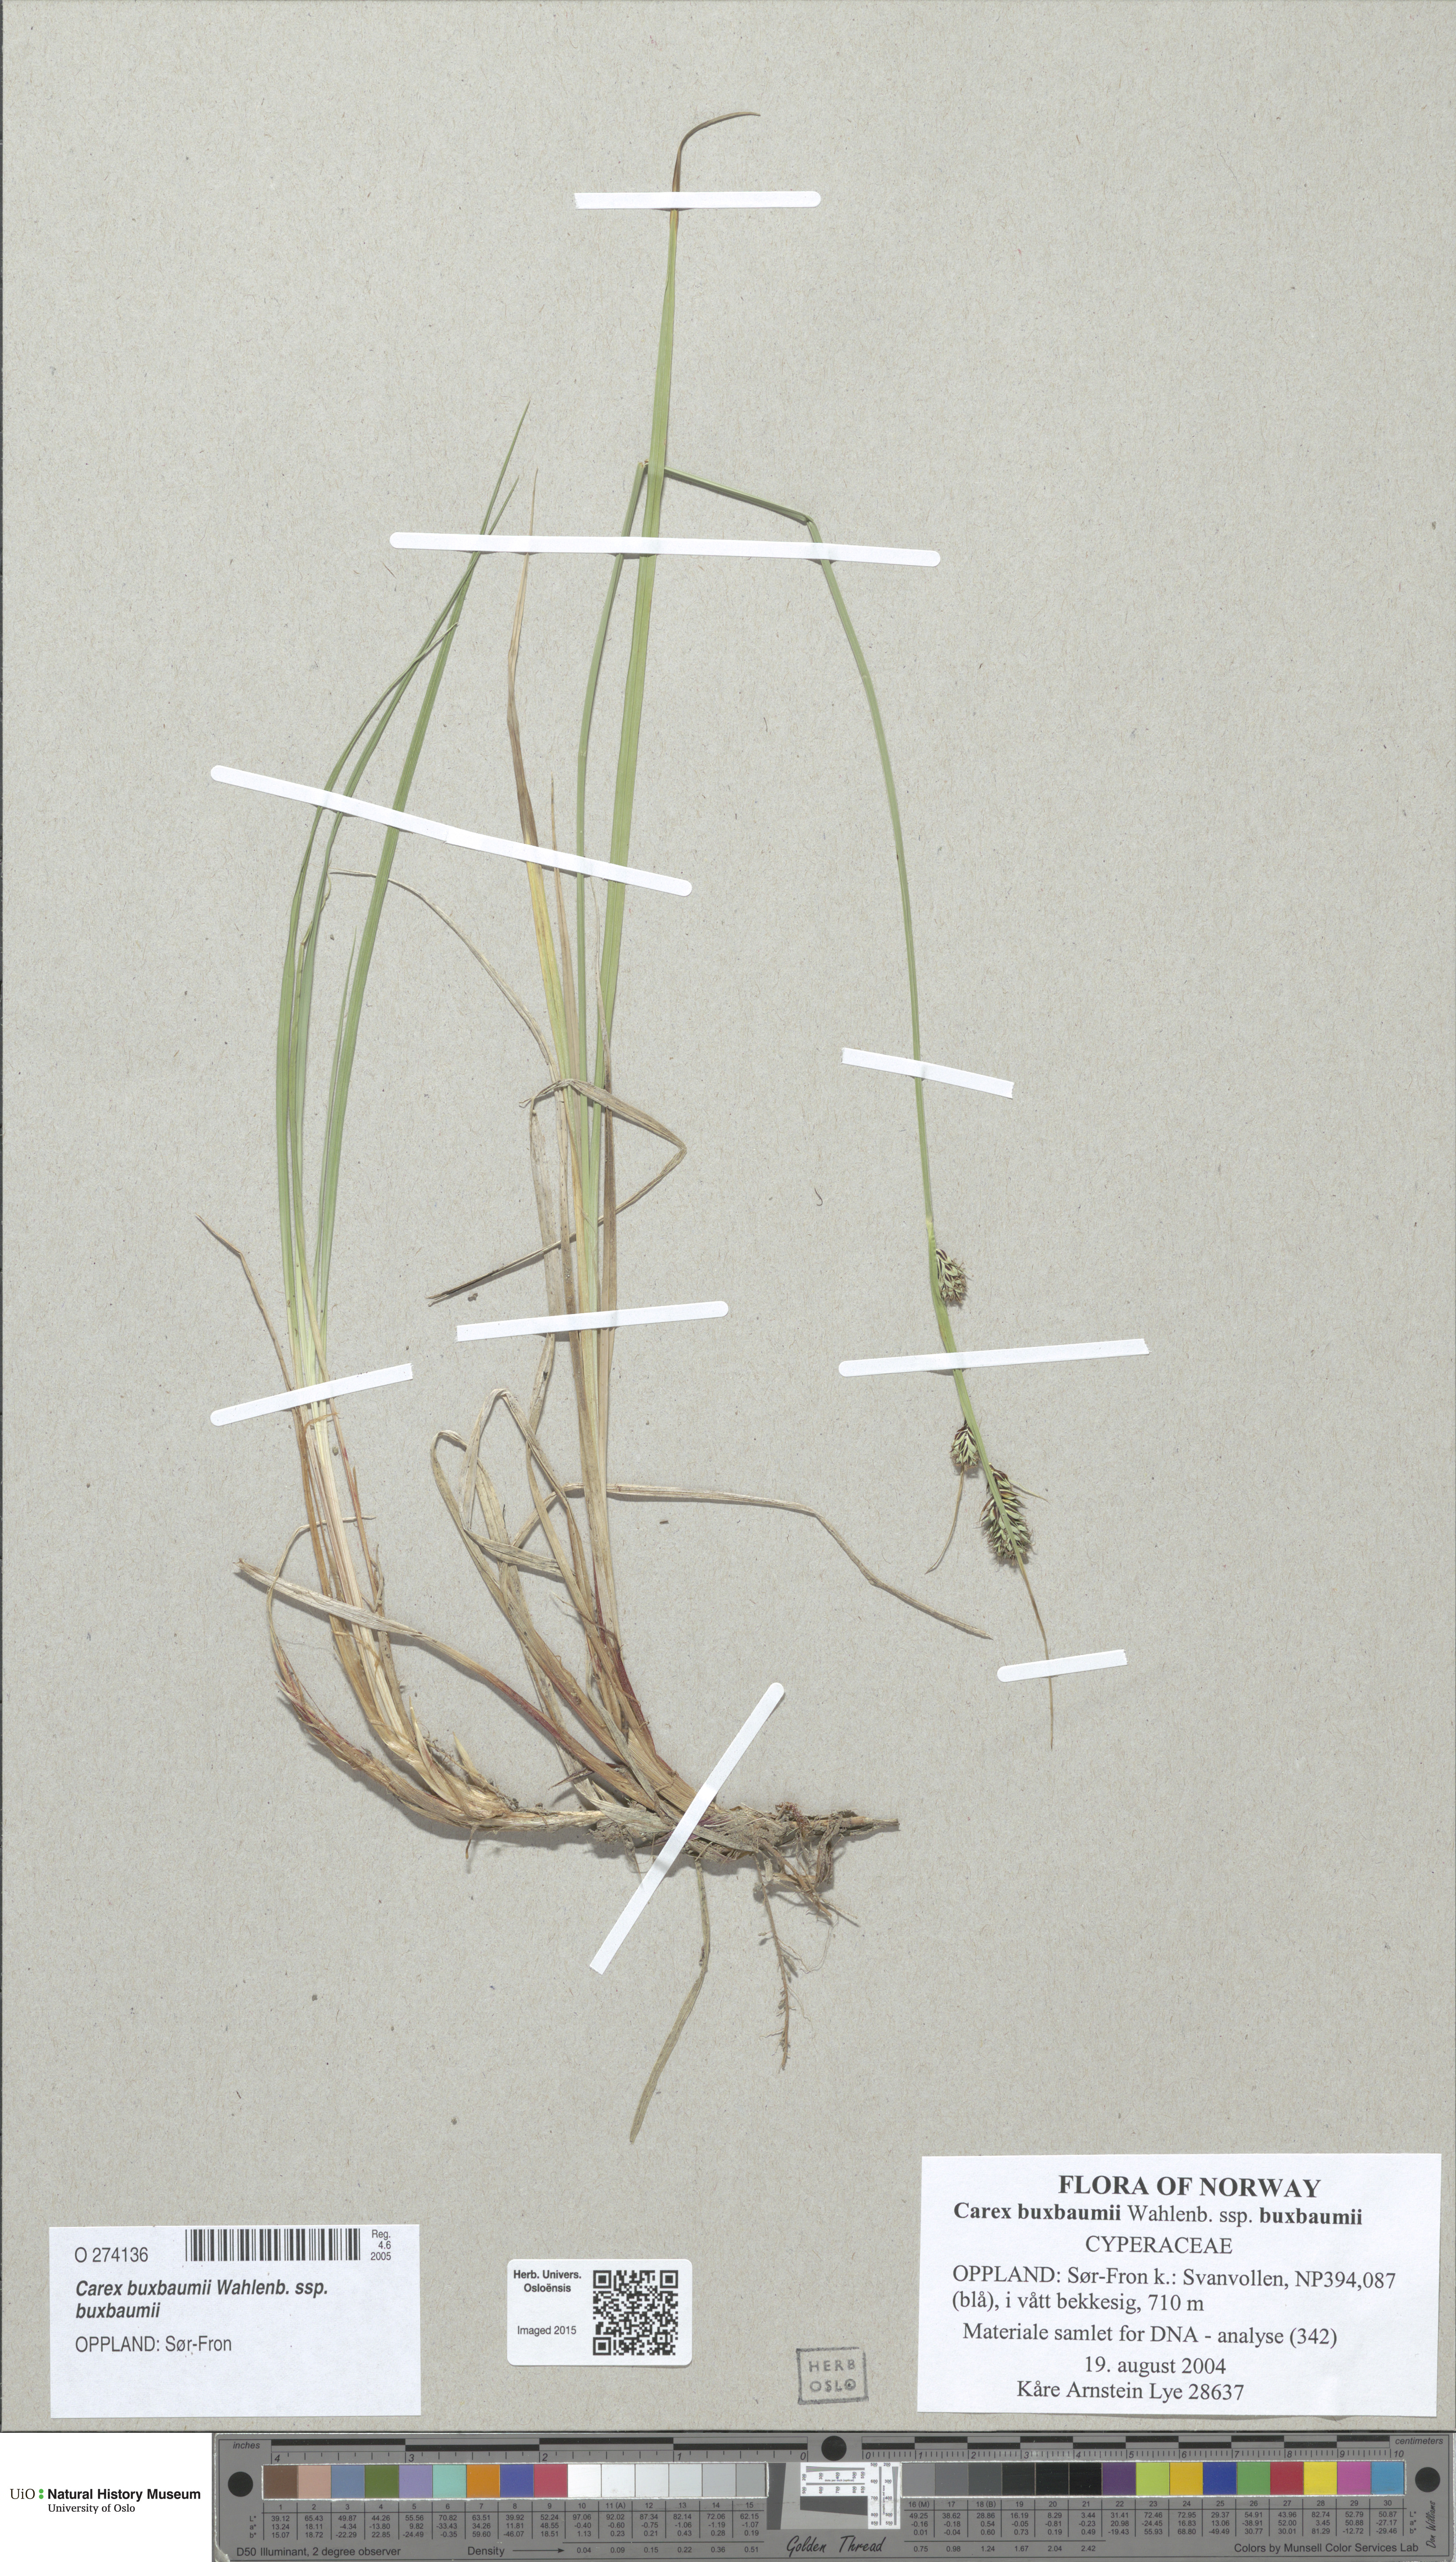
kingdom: Plantae
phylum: Tracheophyta
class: Liliopsida
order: Poales
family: Cyperaceae
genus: Carex
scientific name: Carex buxbaumii
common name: Club sedge
